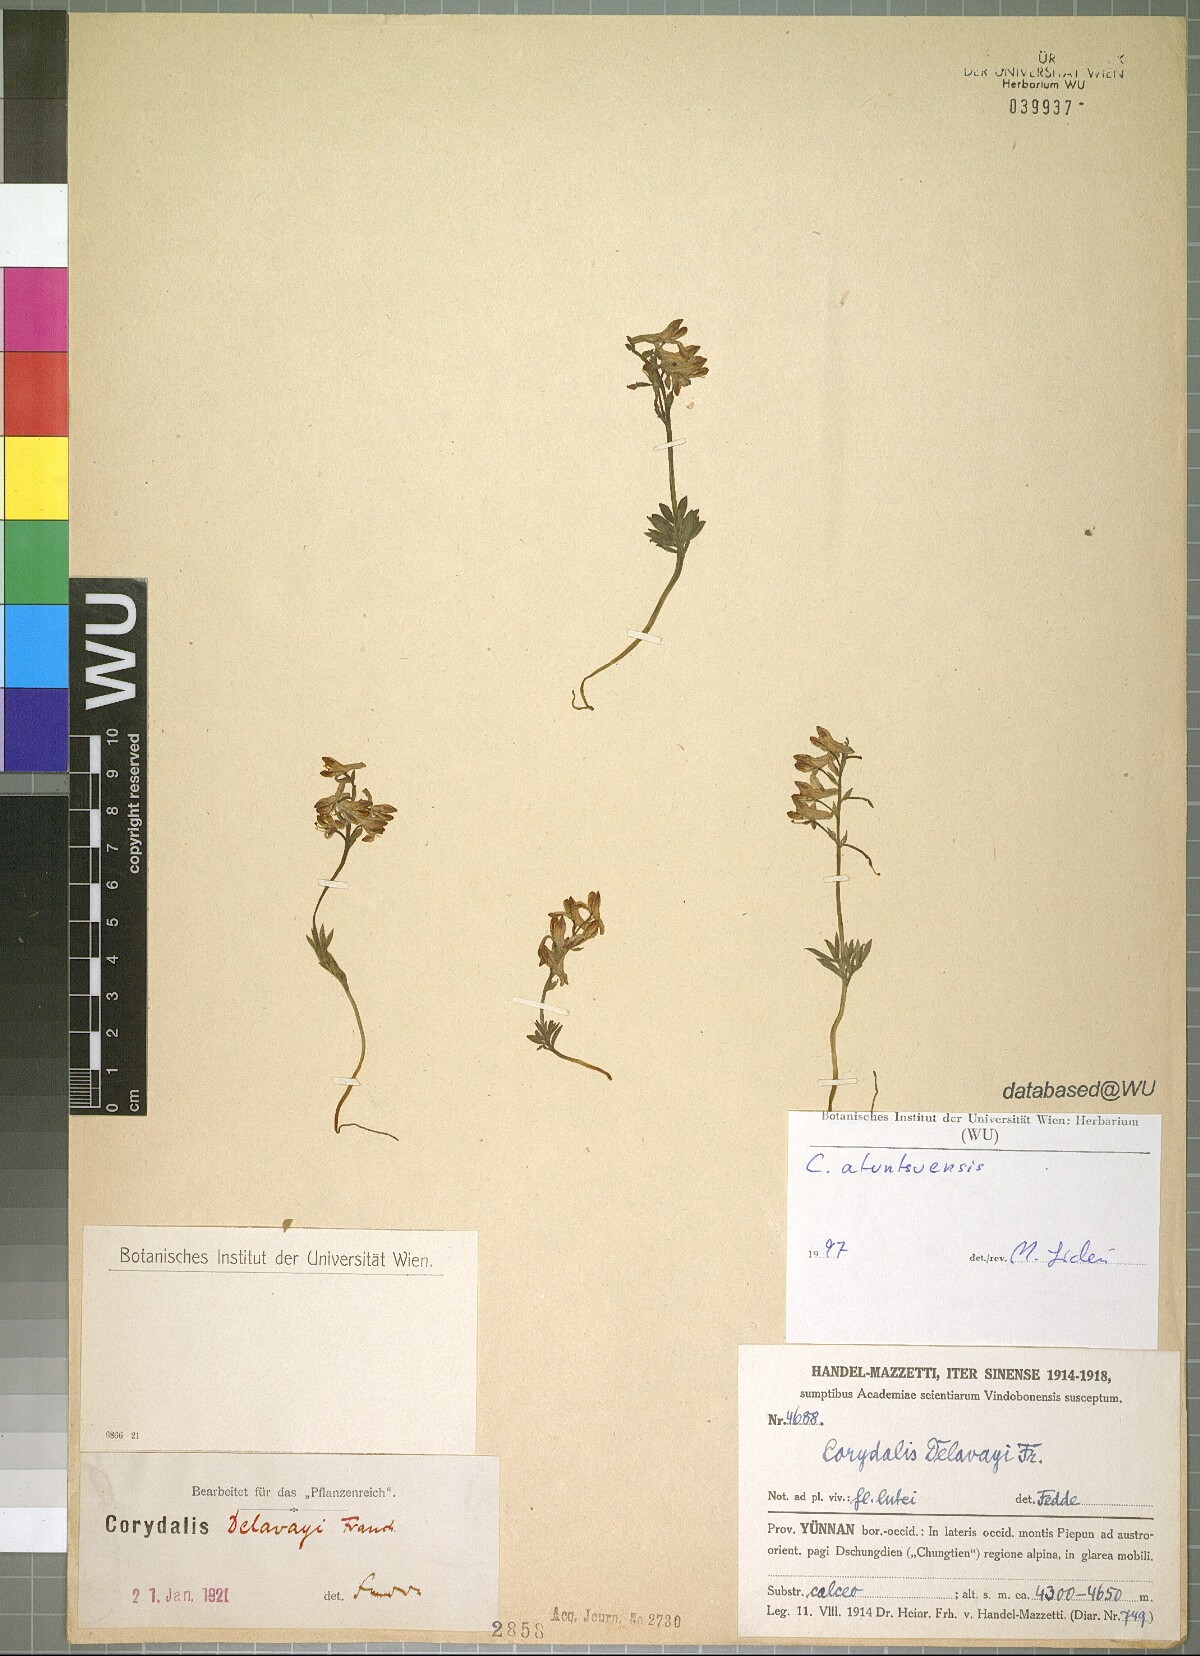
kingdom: Plantae
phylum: Tracheophyta
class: Magnoliopsida
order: Ranunculales
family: Papaveraceae
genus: Corydalis
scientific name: Corydalis atuntsuensis
